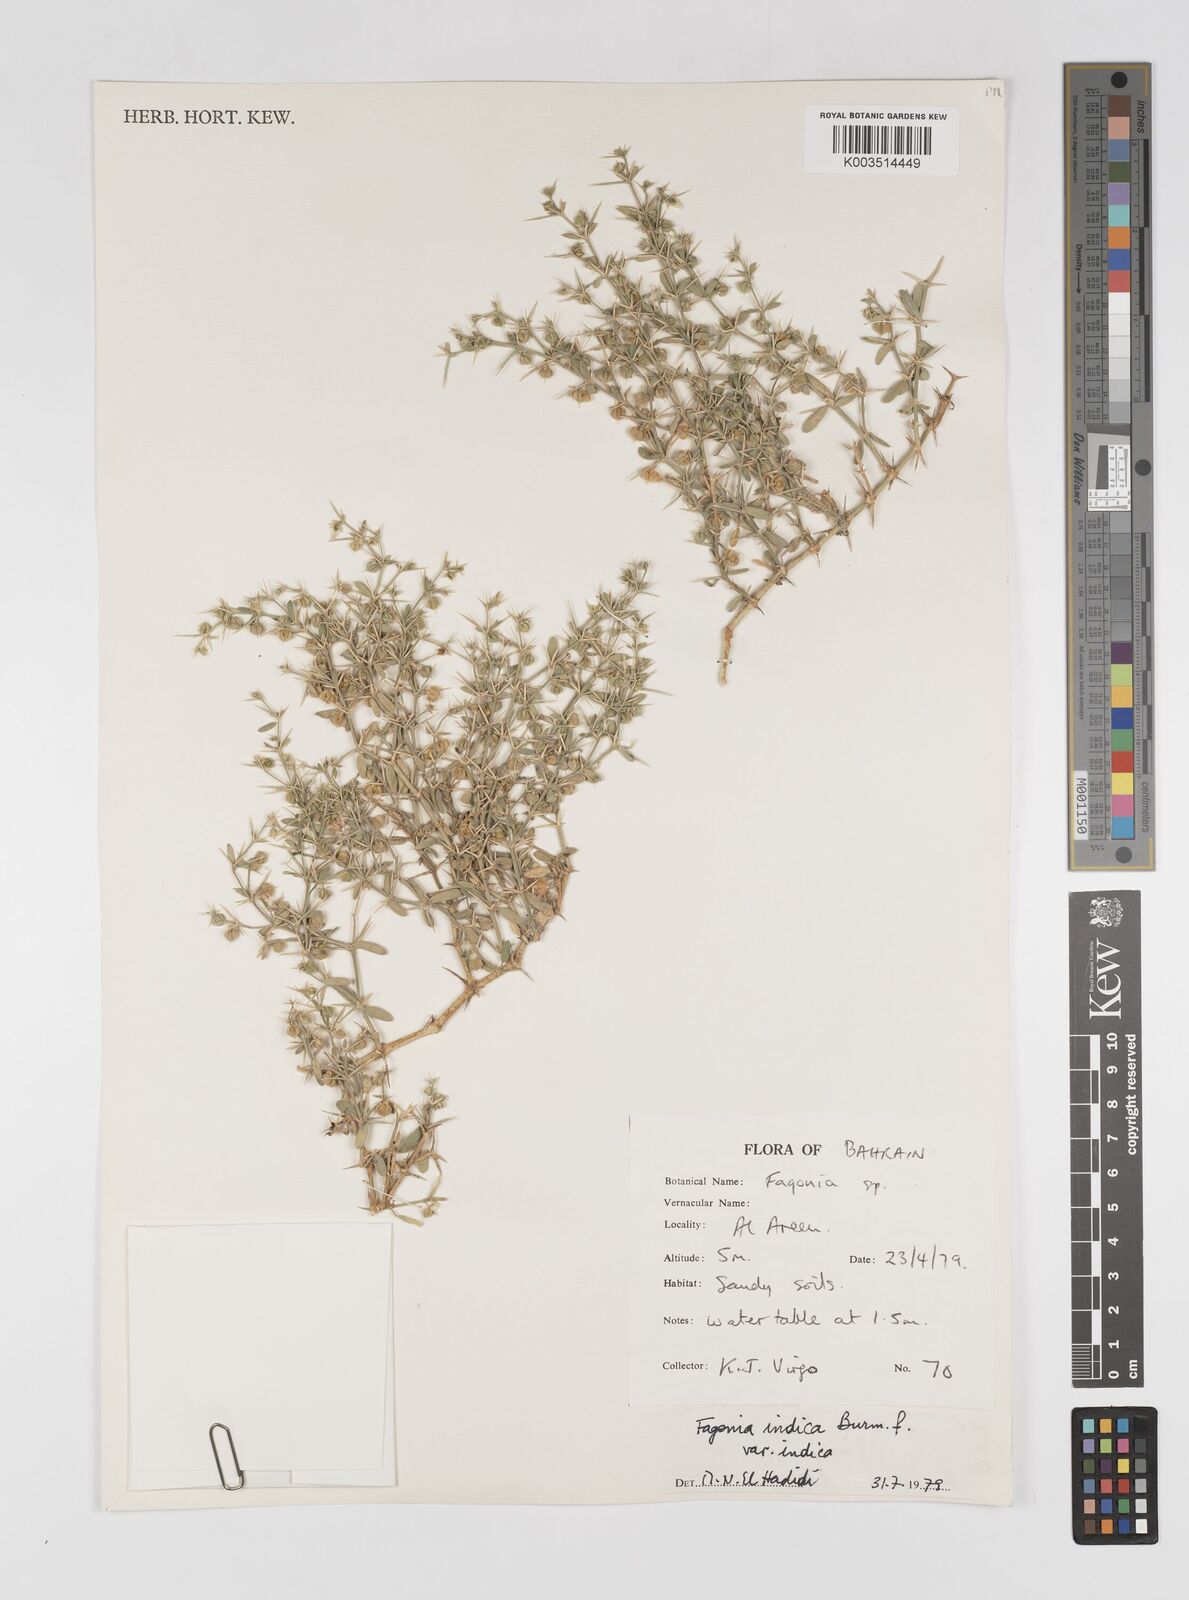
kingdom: Plantae
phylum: Tracheophyta
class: Magnoliopsida
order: Zygophyllales
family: Zygophyllaceae
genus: Fagonia
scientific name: Fagonia indica
